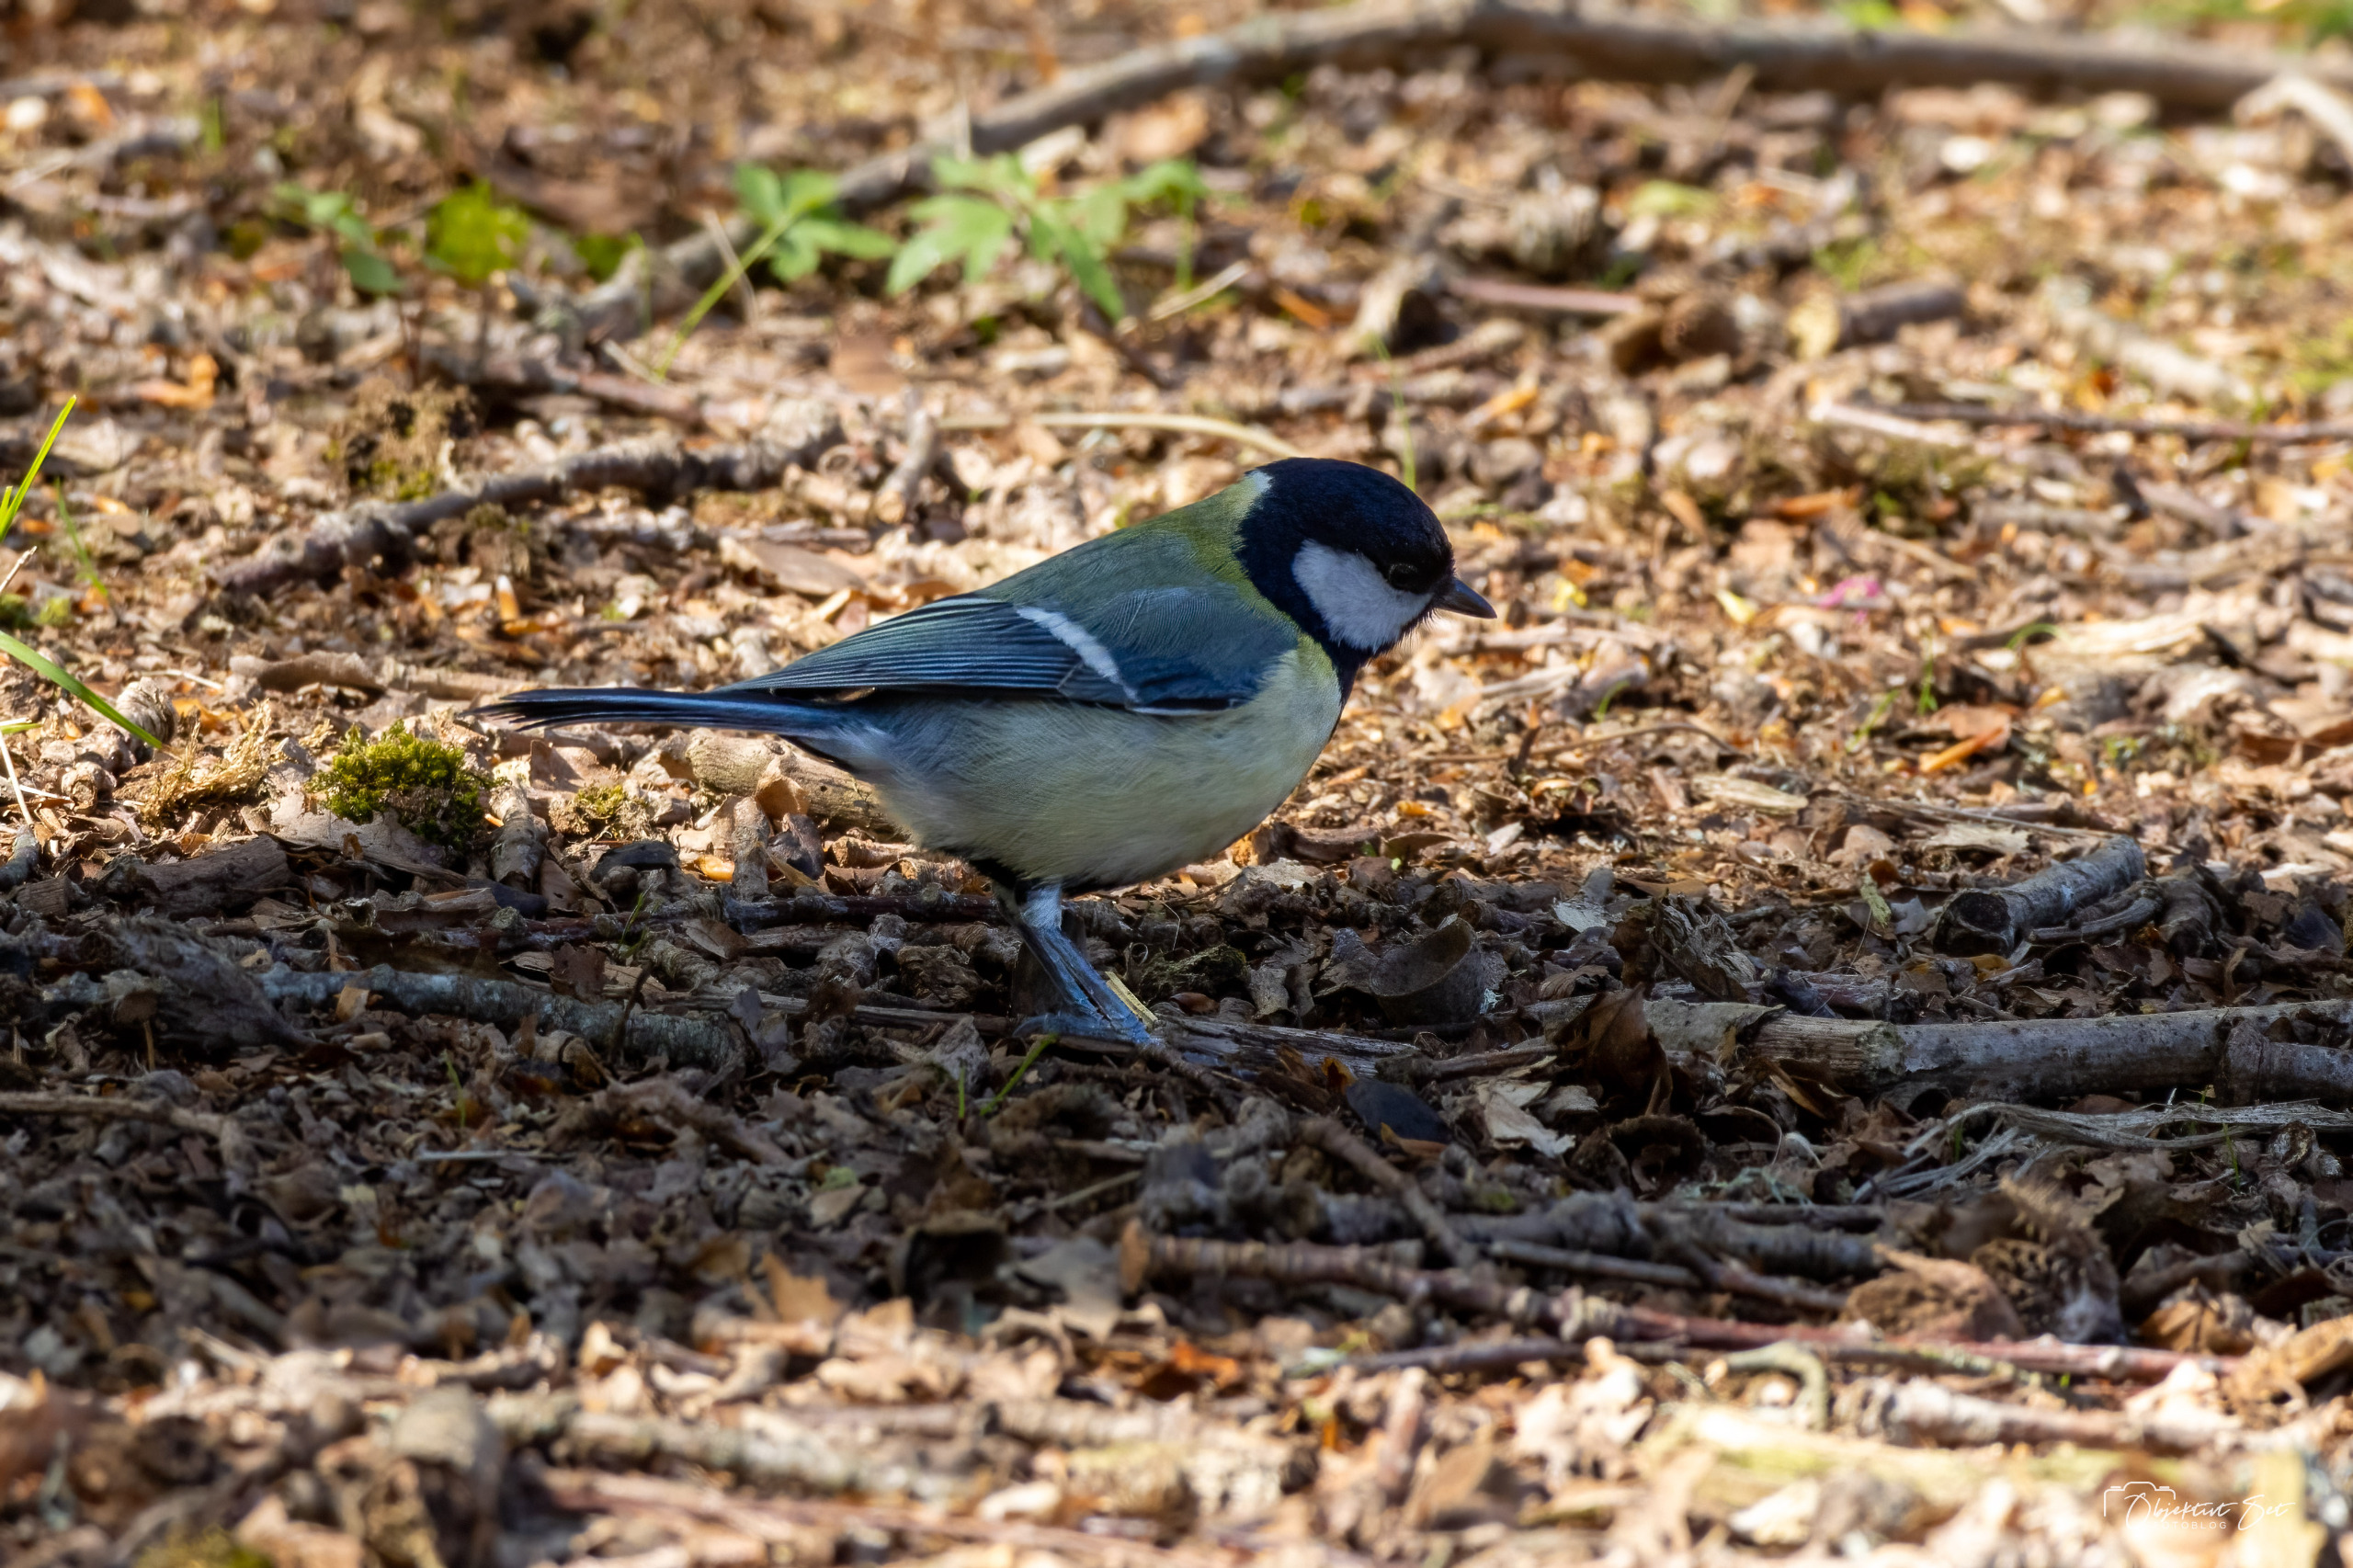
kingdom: Animalia
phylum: Chordata
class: Aves
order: Passeriformes
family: Paridae
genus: Parus
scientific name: Parus major
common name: Musvit
